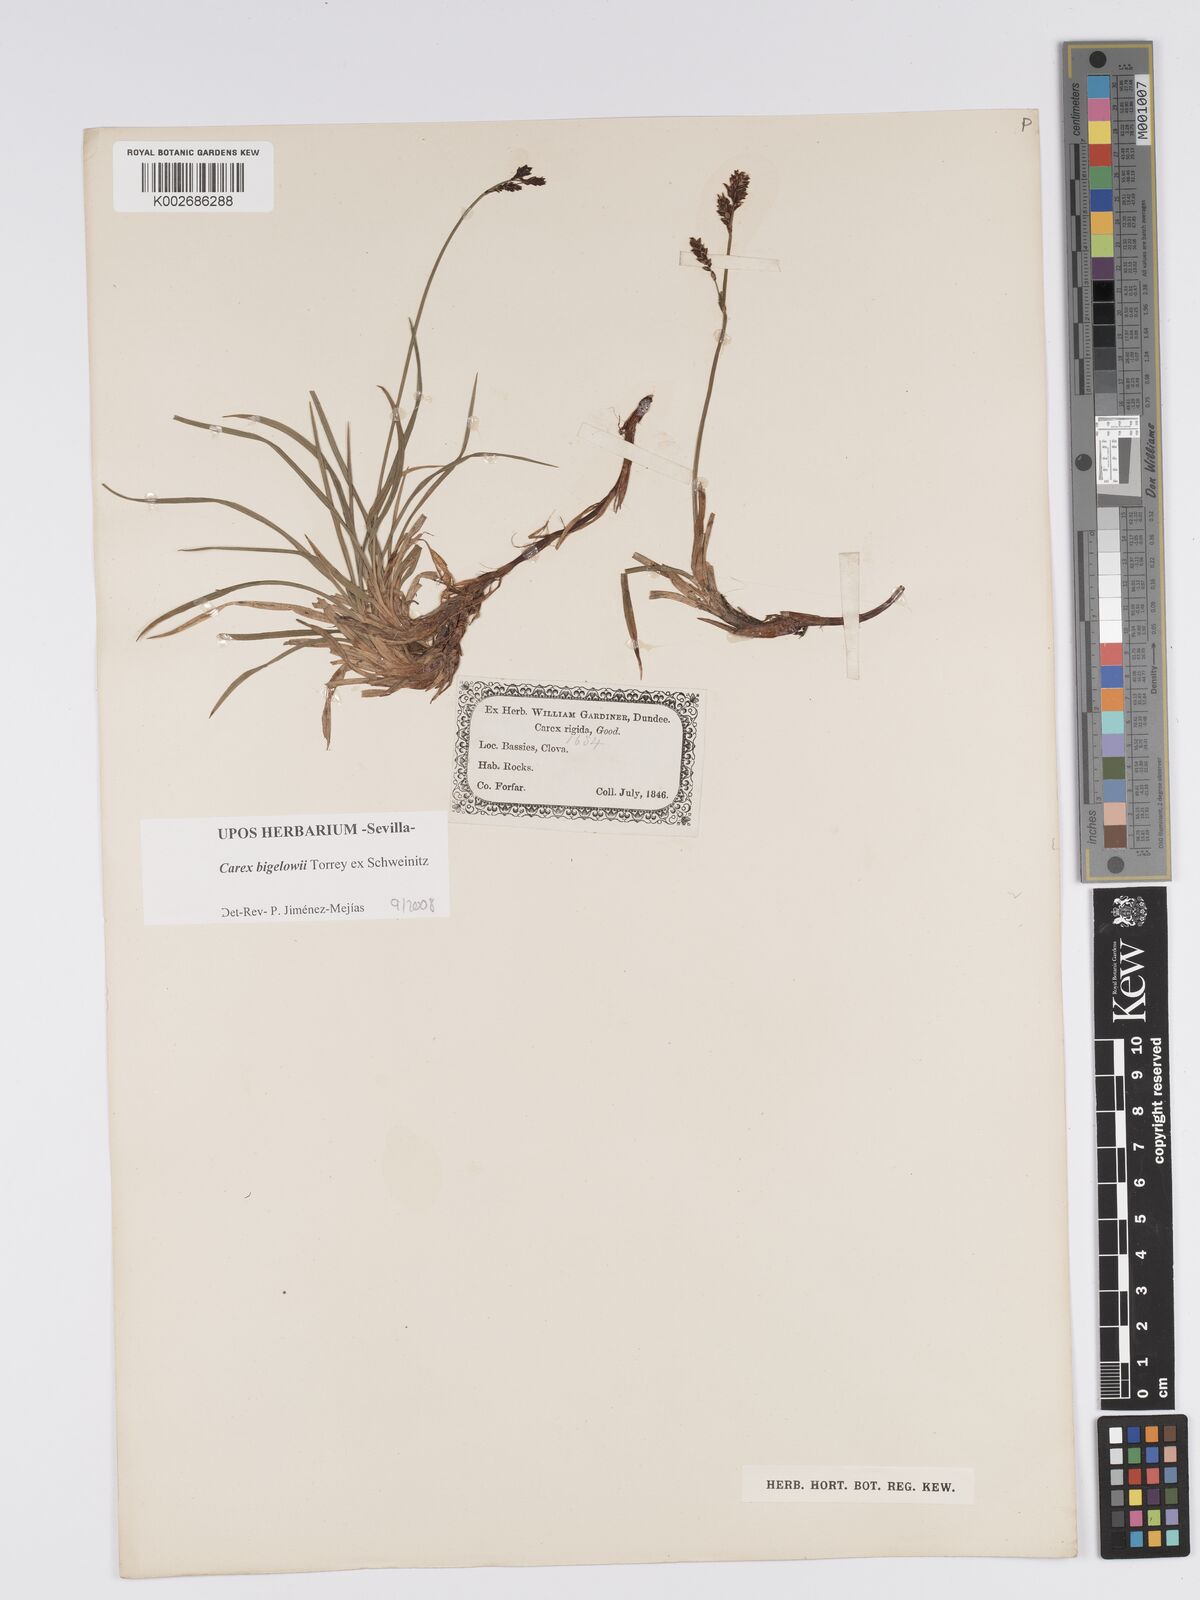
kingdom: Plantae
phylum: Tracheophyta
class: Liliopsida
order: Poales
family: Cyperaceae
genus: Carex
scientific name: Carex bigelowii
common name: Stiff sedge
